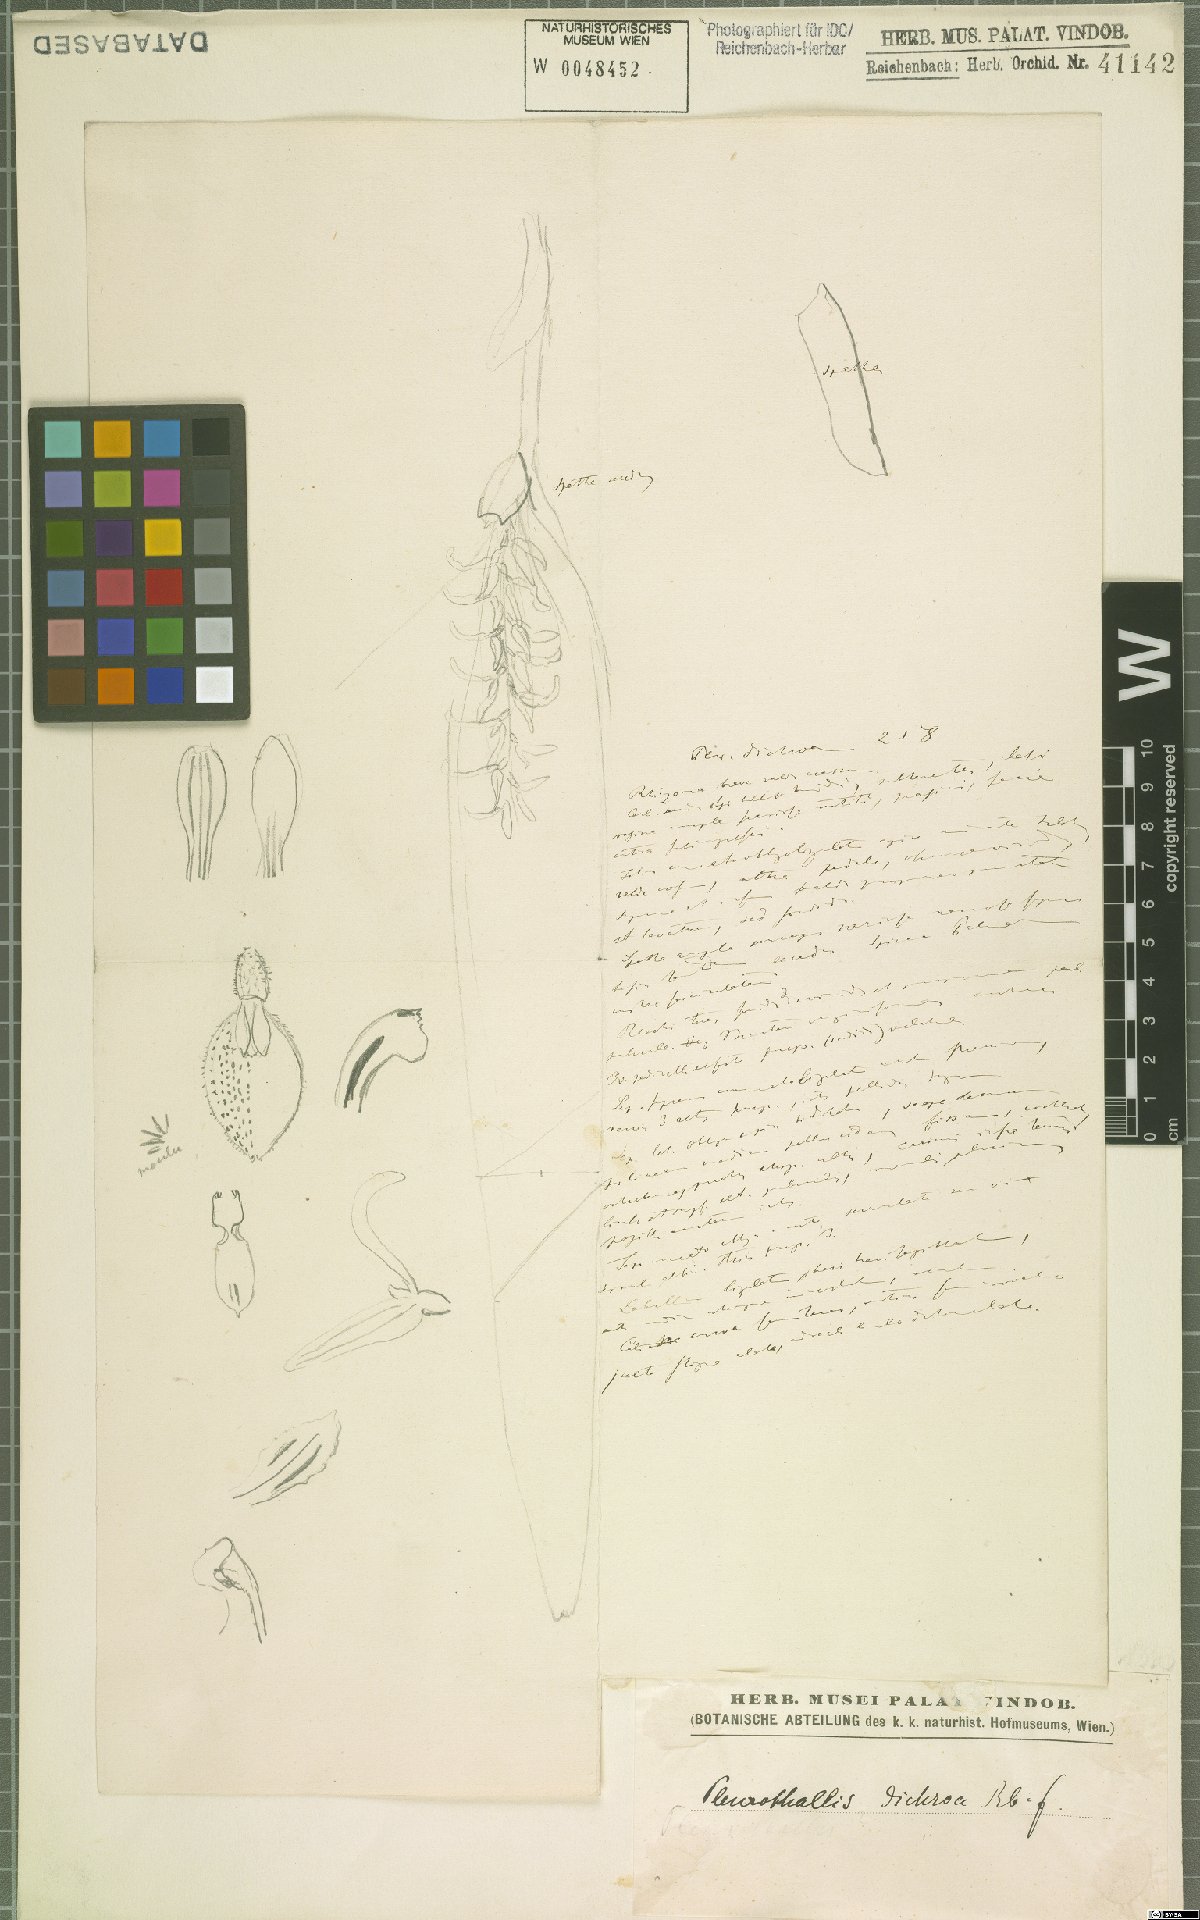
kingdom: Plantae
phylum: Tracheophyta
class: Liliopsida
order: Asparagales
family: Orchidaceae
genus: Acianthera
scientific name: Acianthera dichroa
